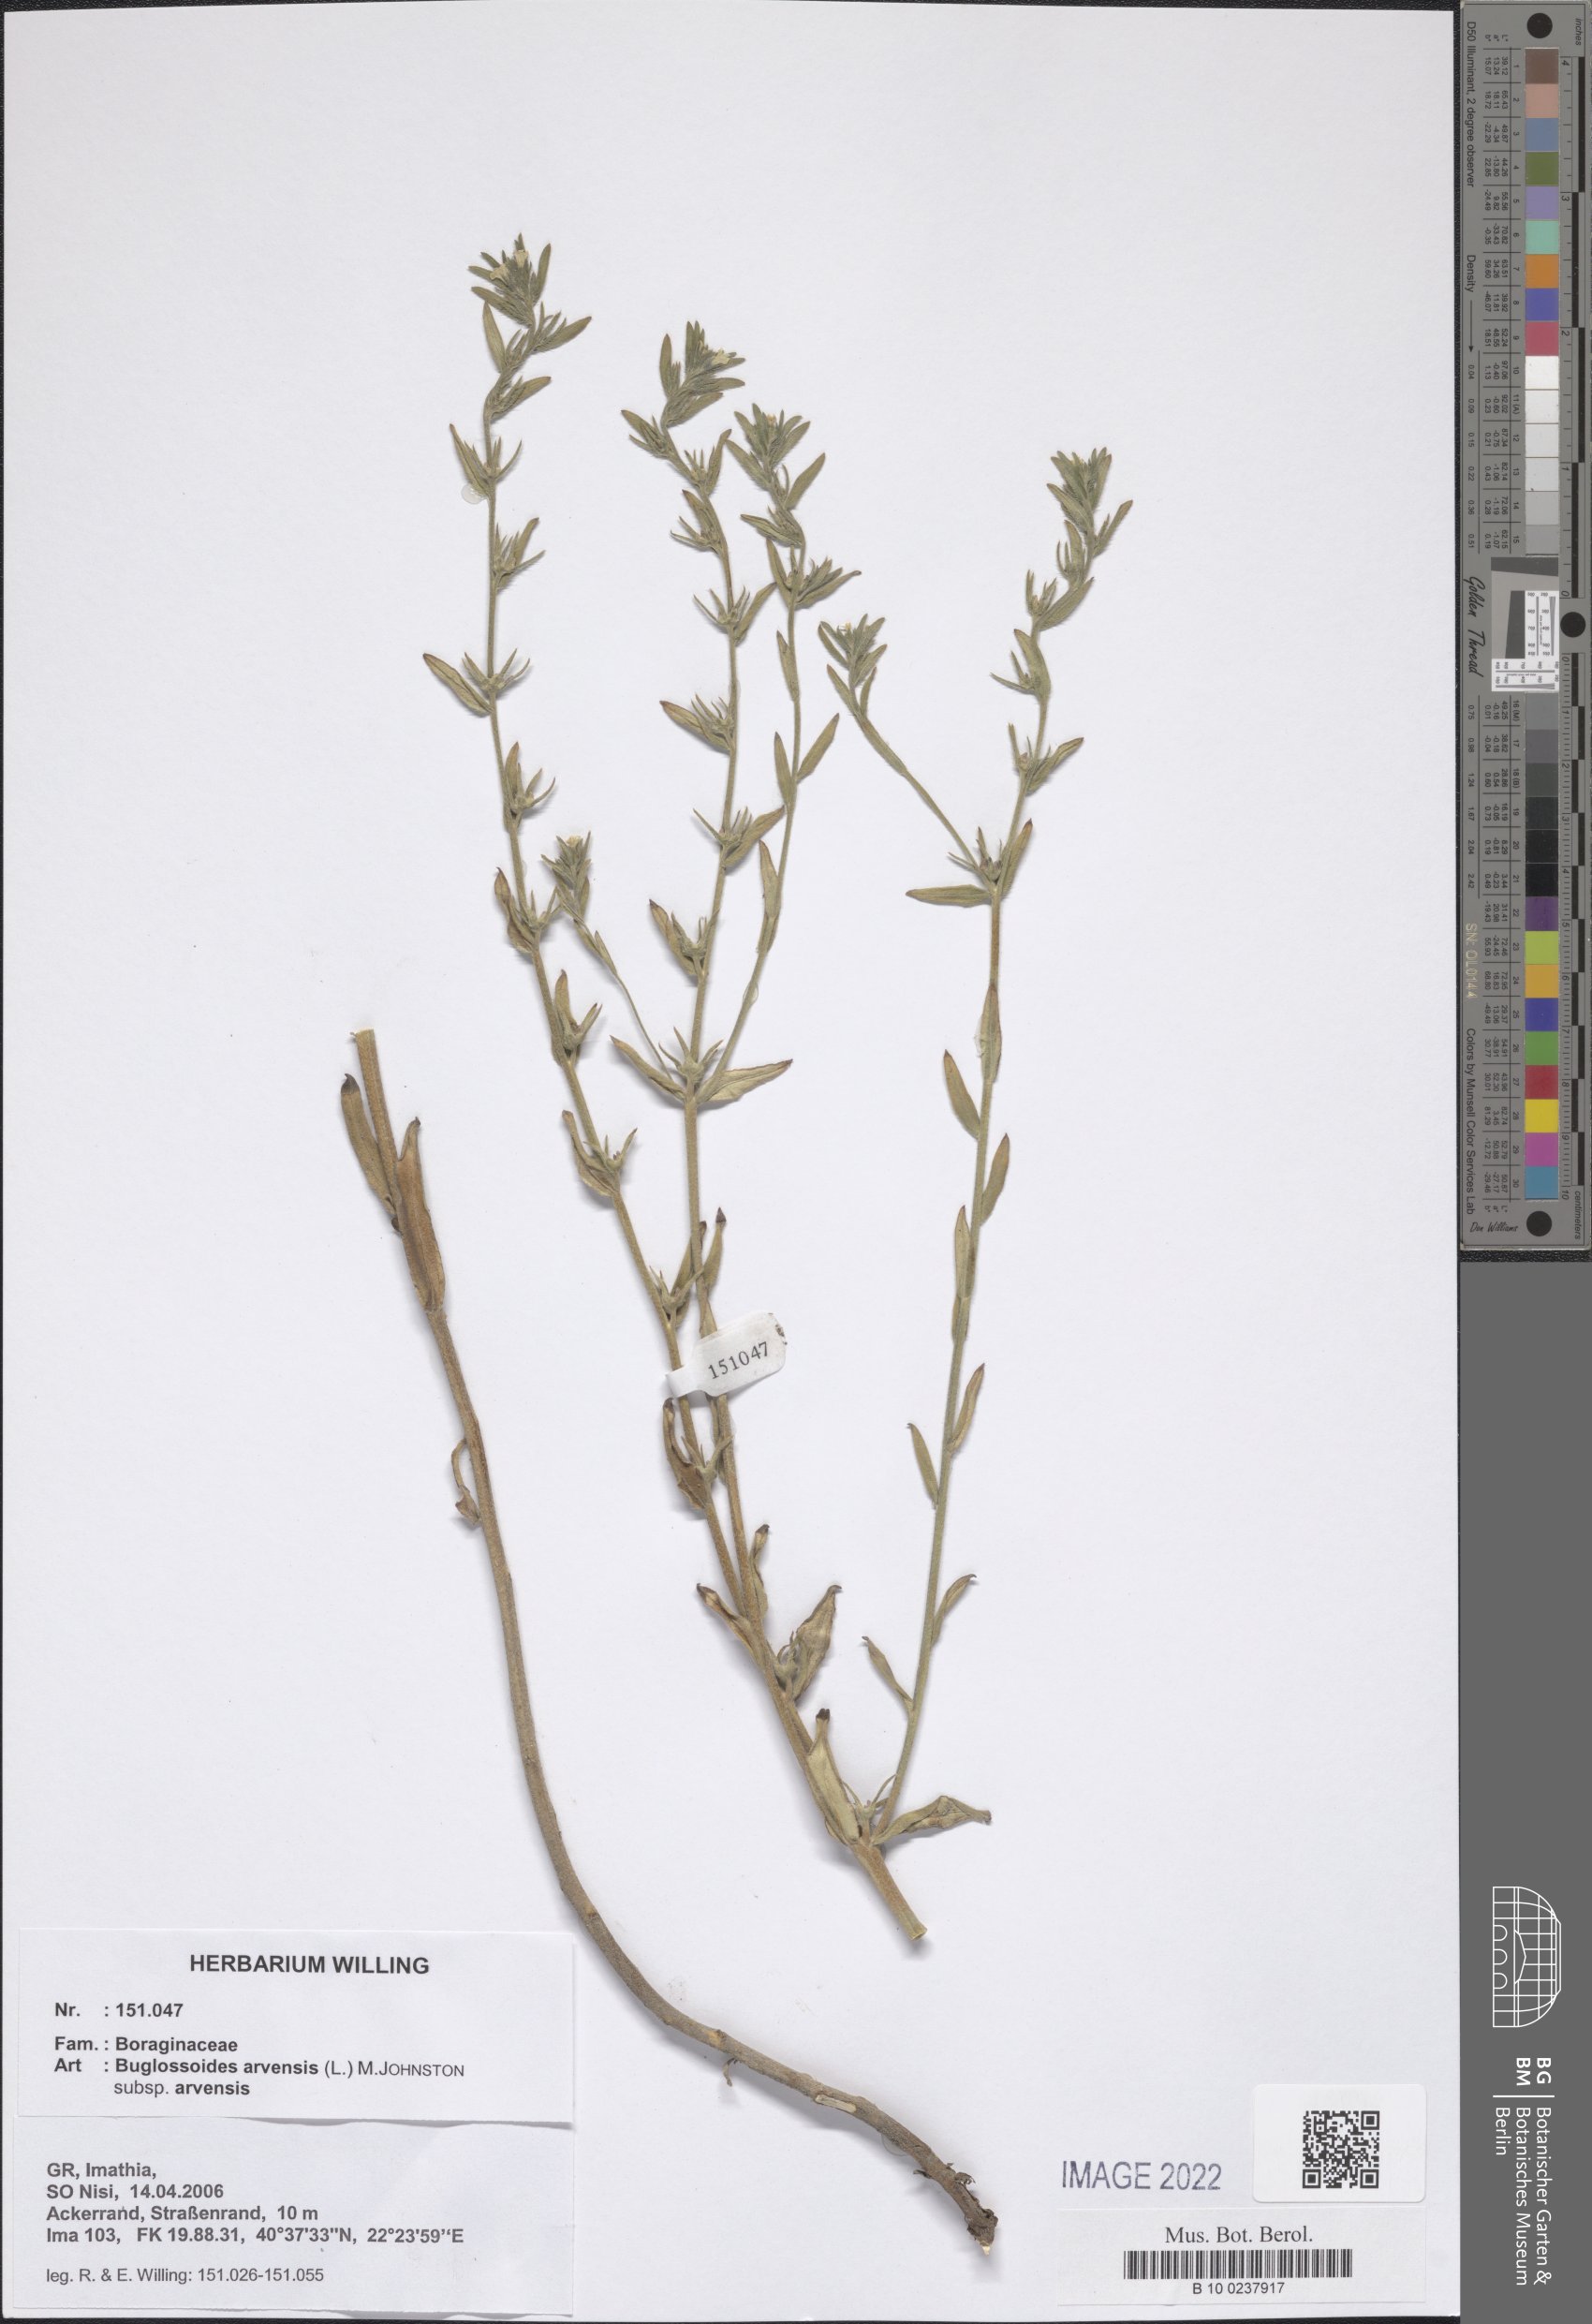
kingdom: Plantae
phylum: Tracheophyta
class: Magnoliopsida
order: Boraginales
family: Boraginaceae
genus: Buglossoides
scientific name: Buglossoides arvensis
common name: Corn gromwell
